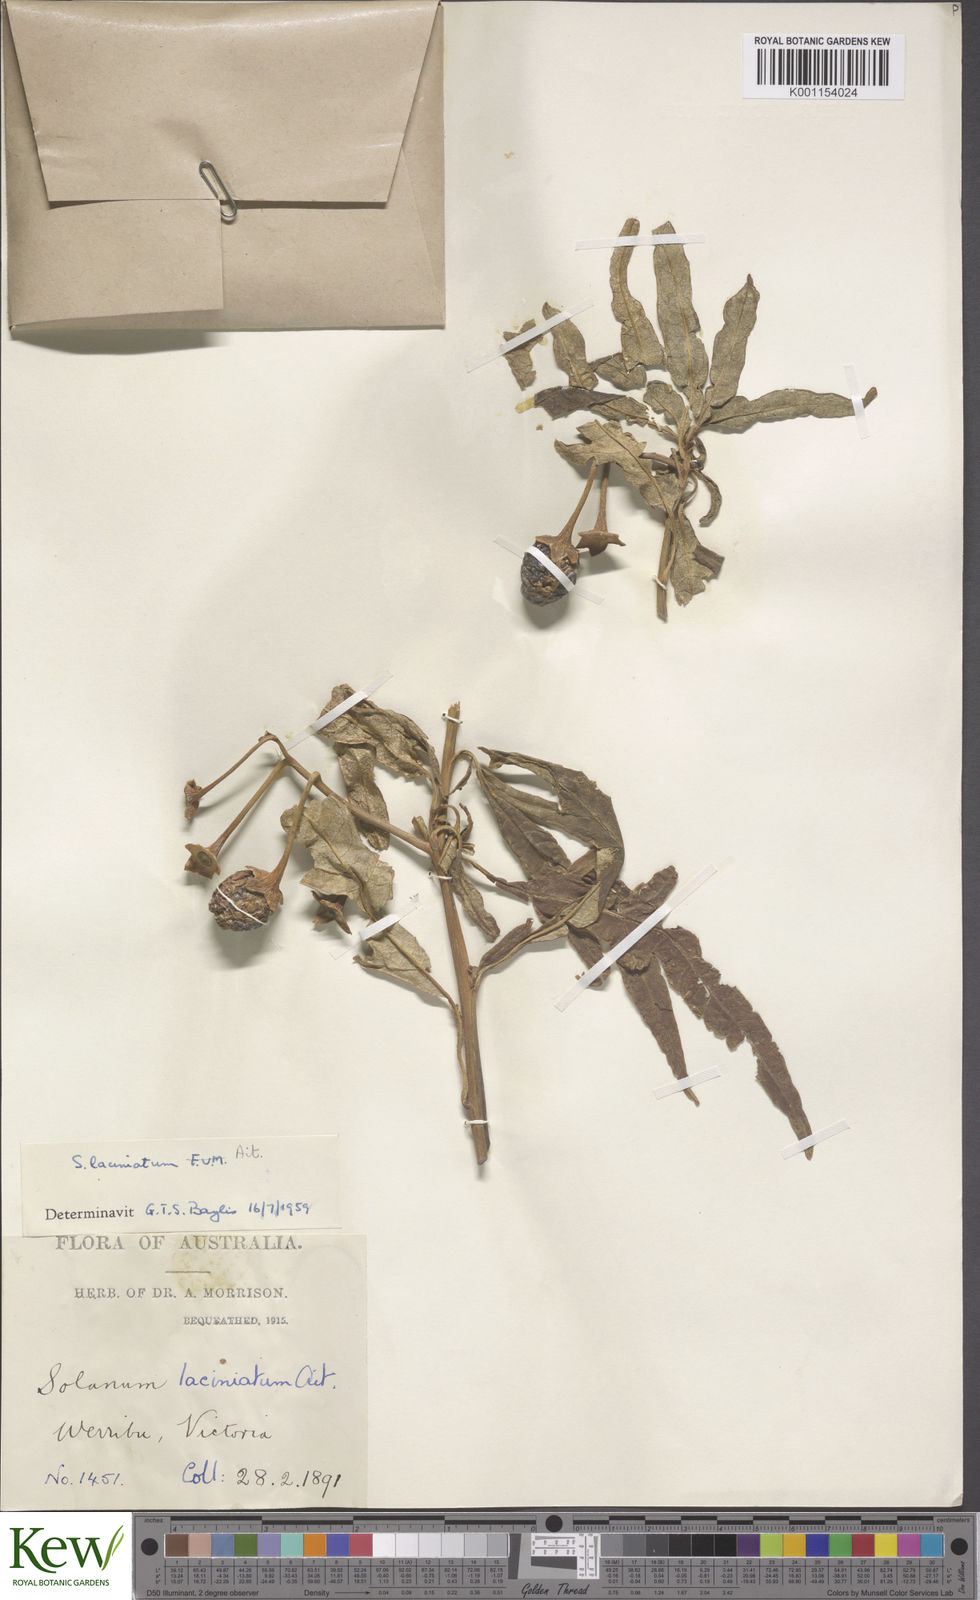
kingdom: Plantae
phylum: Tracheophyta
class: Magnoliopsida
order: Solanales
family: Solanaceae
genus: Solanum
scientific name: Solanum laciniatum
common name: Kangaroo-apple
